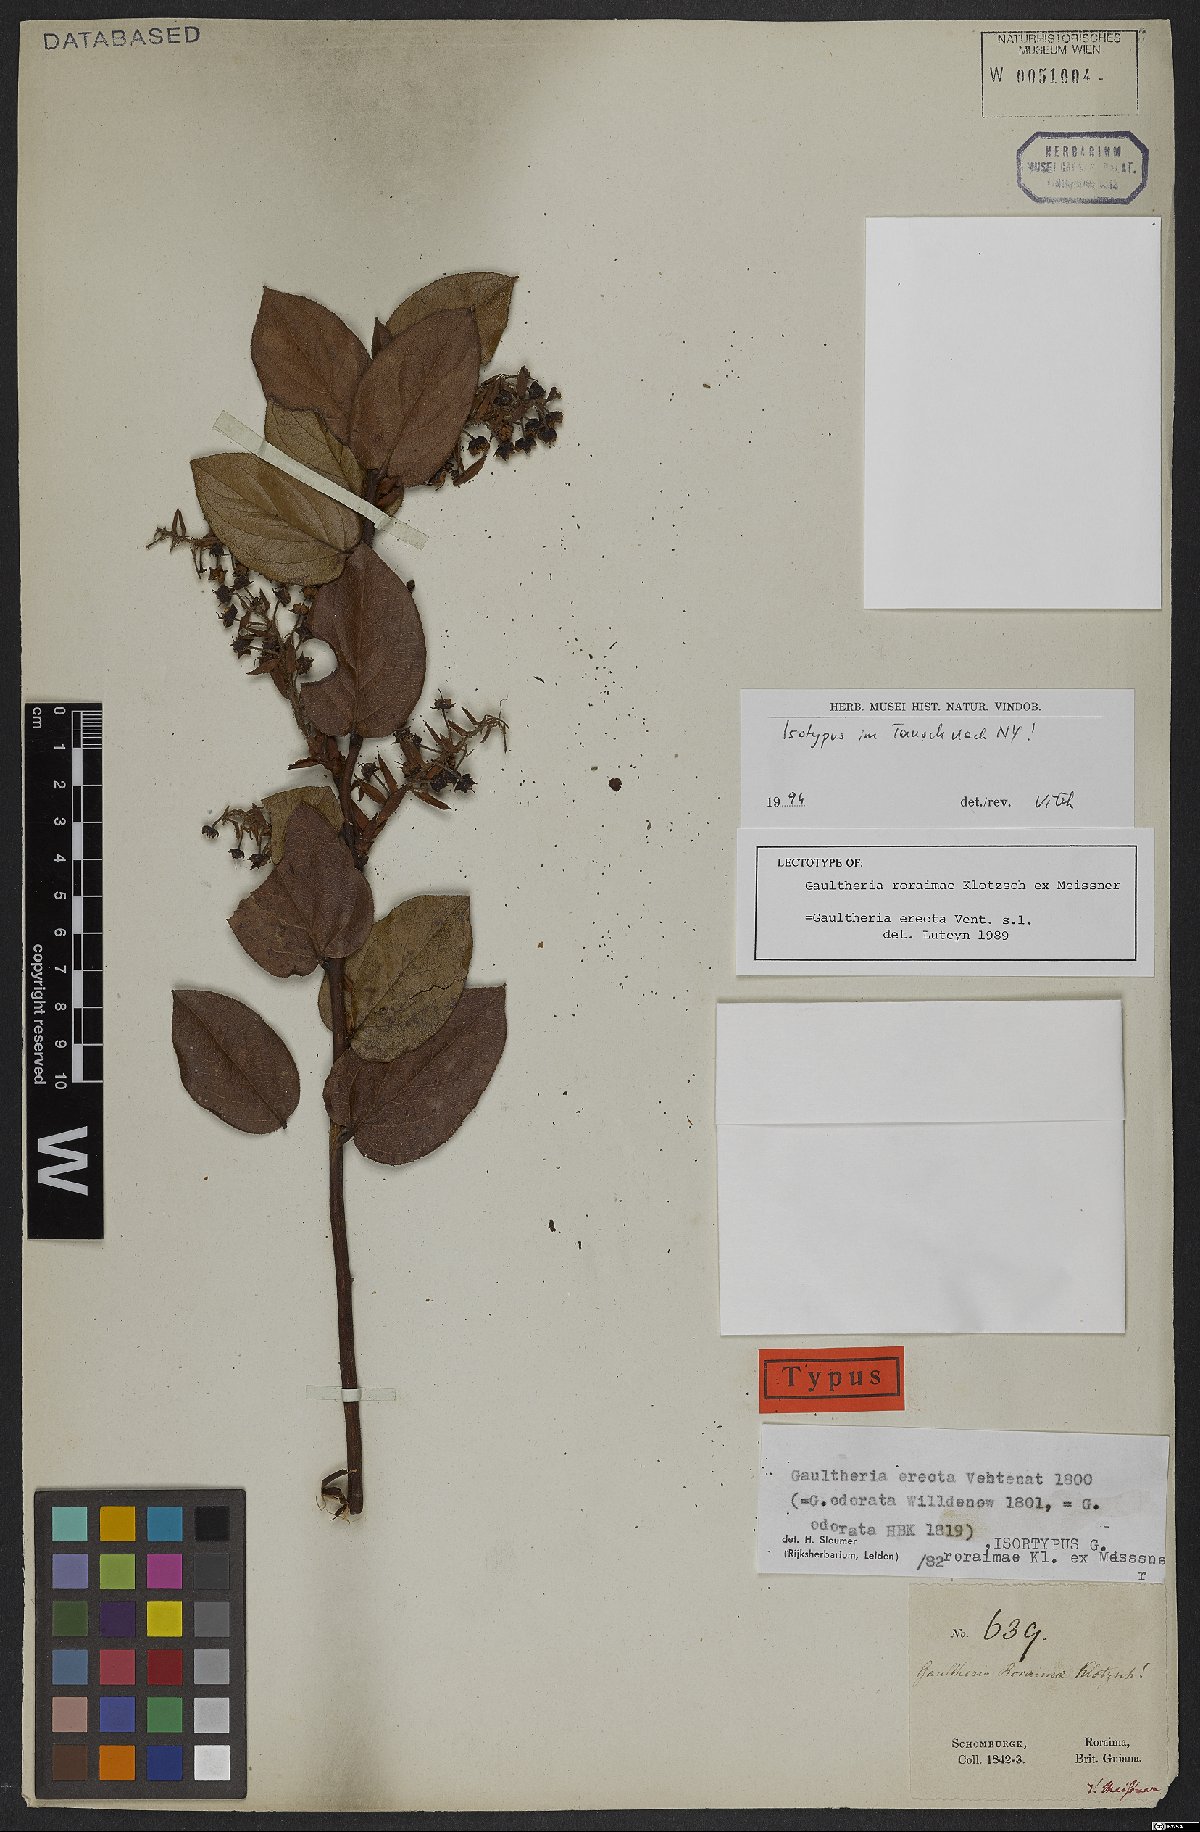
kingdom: Plantae
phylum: Tracheophyta
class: Magnoliopsida
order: Ericales
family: Ericaceae
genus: Gaultheria
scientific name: Gaultheria erecta
